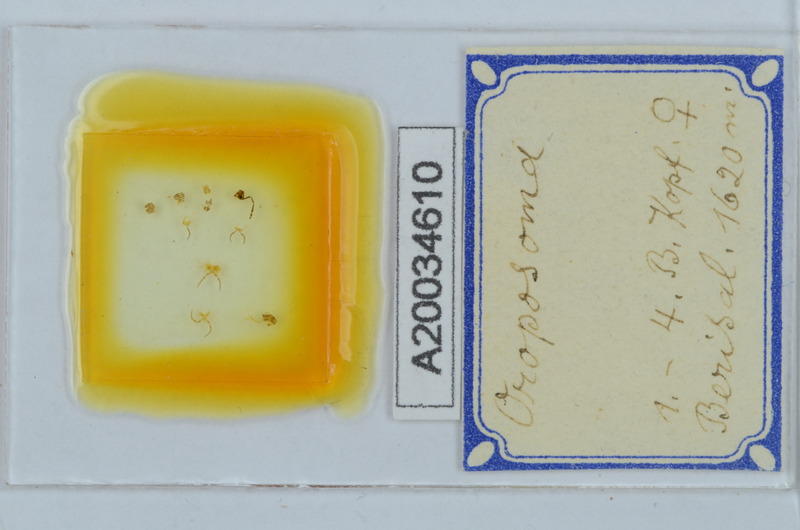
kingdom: Animalia
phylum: Arthropoda
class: Diplopoda
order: Chordeumatida
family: Craspedosomatidae
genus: Oroposoma
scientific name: Oroposoma
